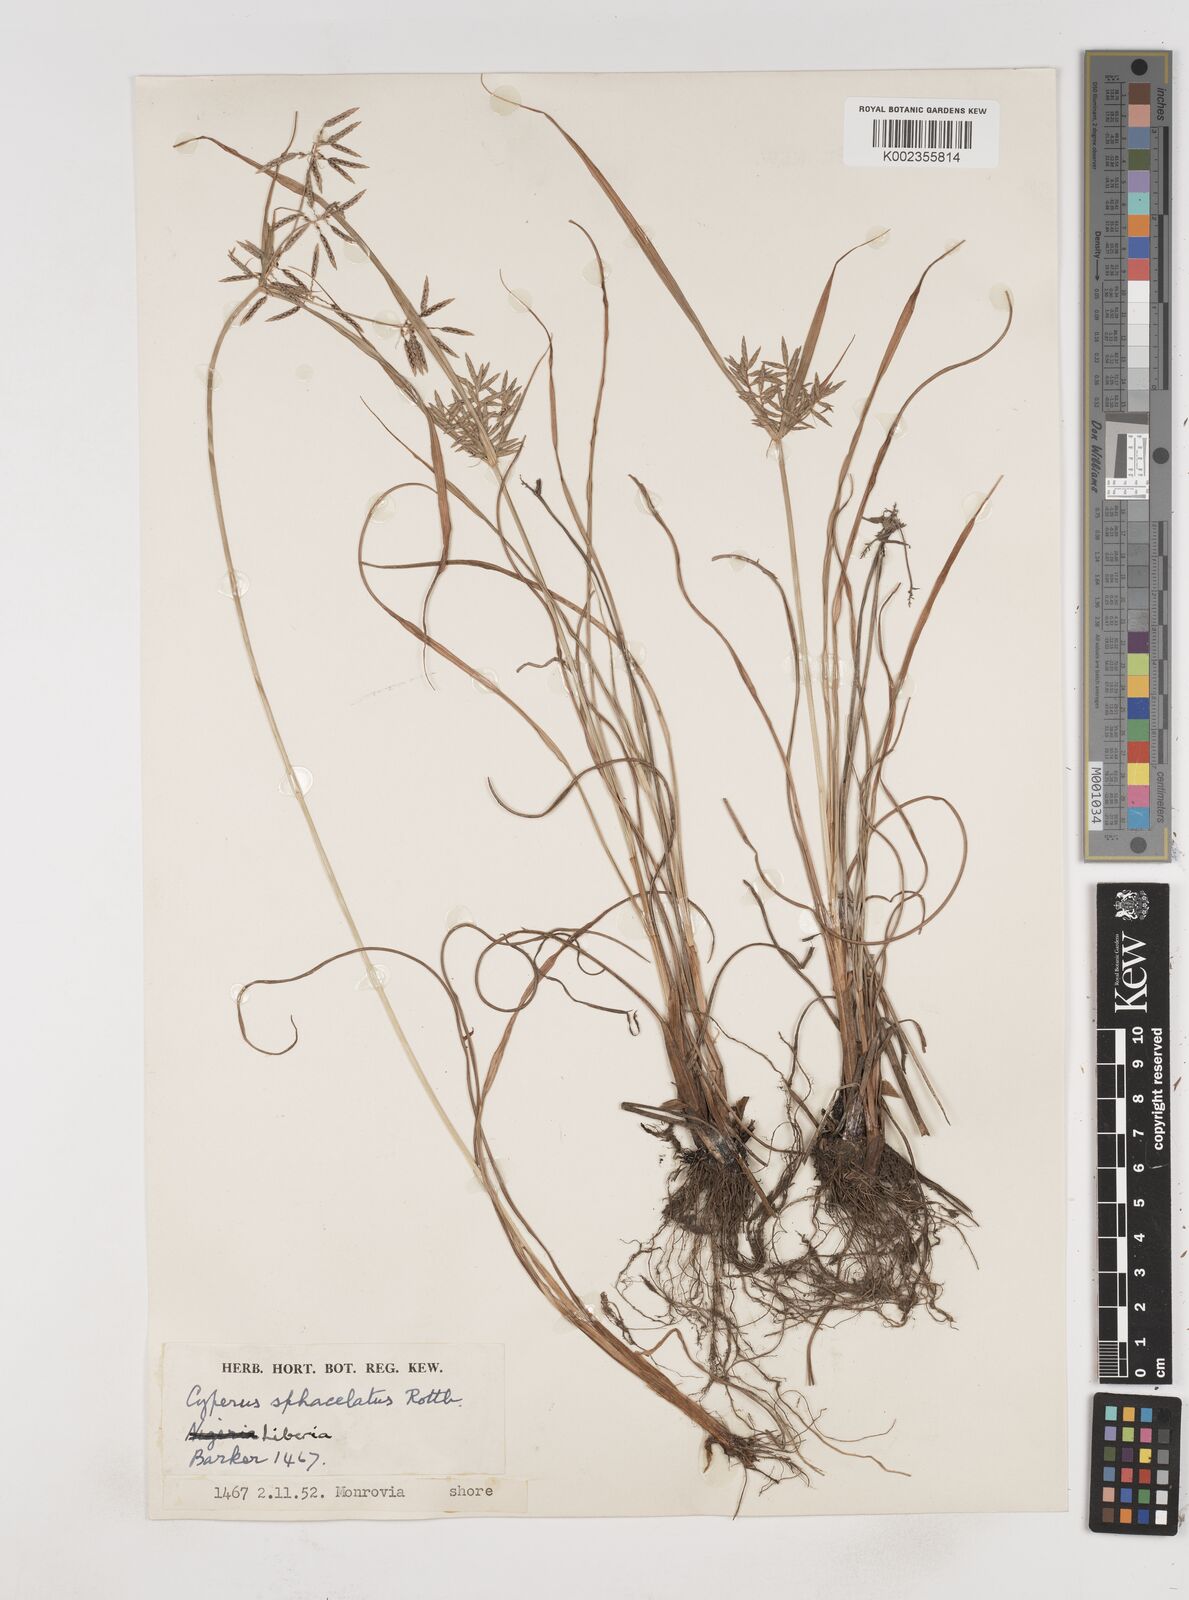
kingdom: Plantae
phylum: Tracheophyta
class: Liliopsida
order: Poales
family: Cyperaceae
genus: Cyperus
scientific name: Cyperus sphacelatus
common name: Roadside flatsedge
